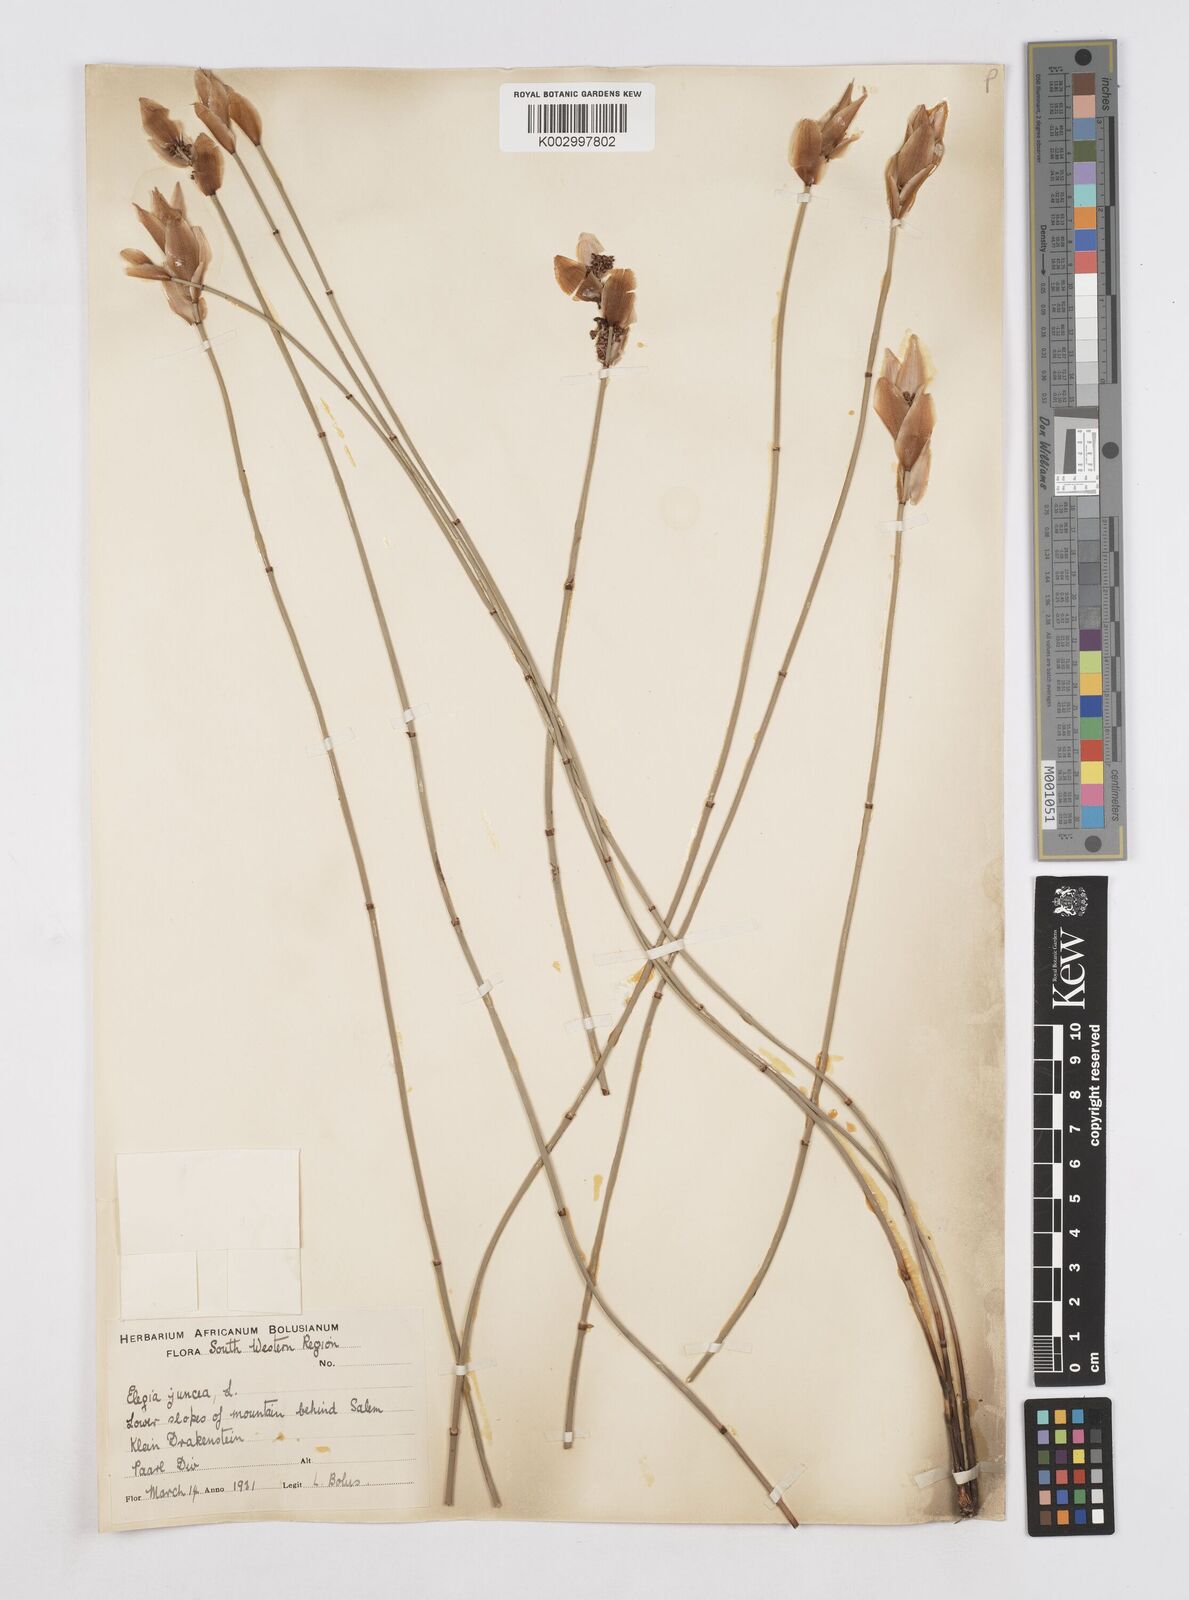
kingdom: Plantae
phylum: Tracheophyta
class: Liliopsida
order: Poales
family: Restionaceae
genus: Elegia
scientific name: Elegia juncea
